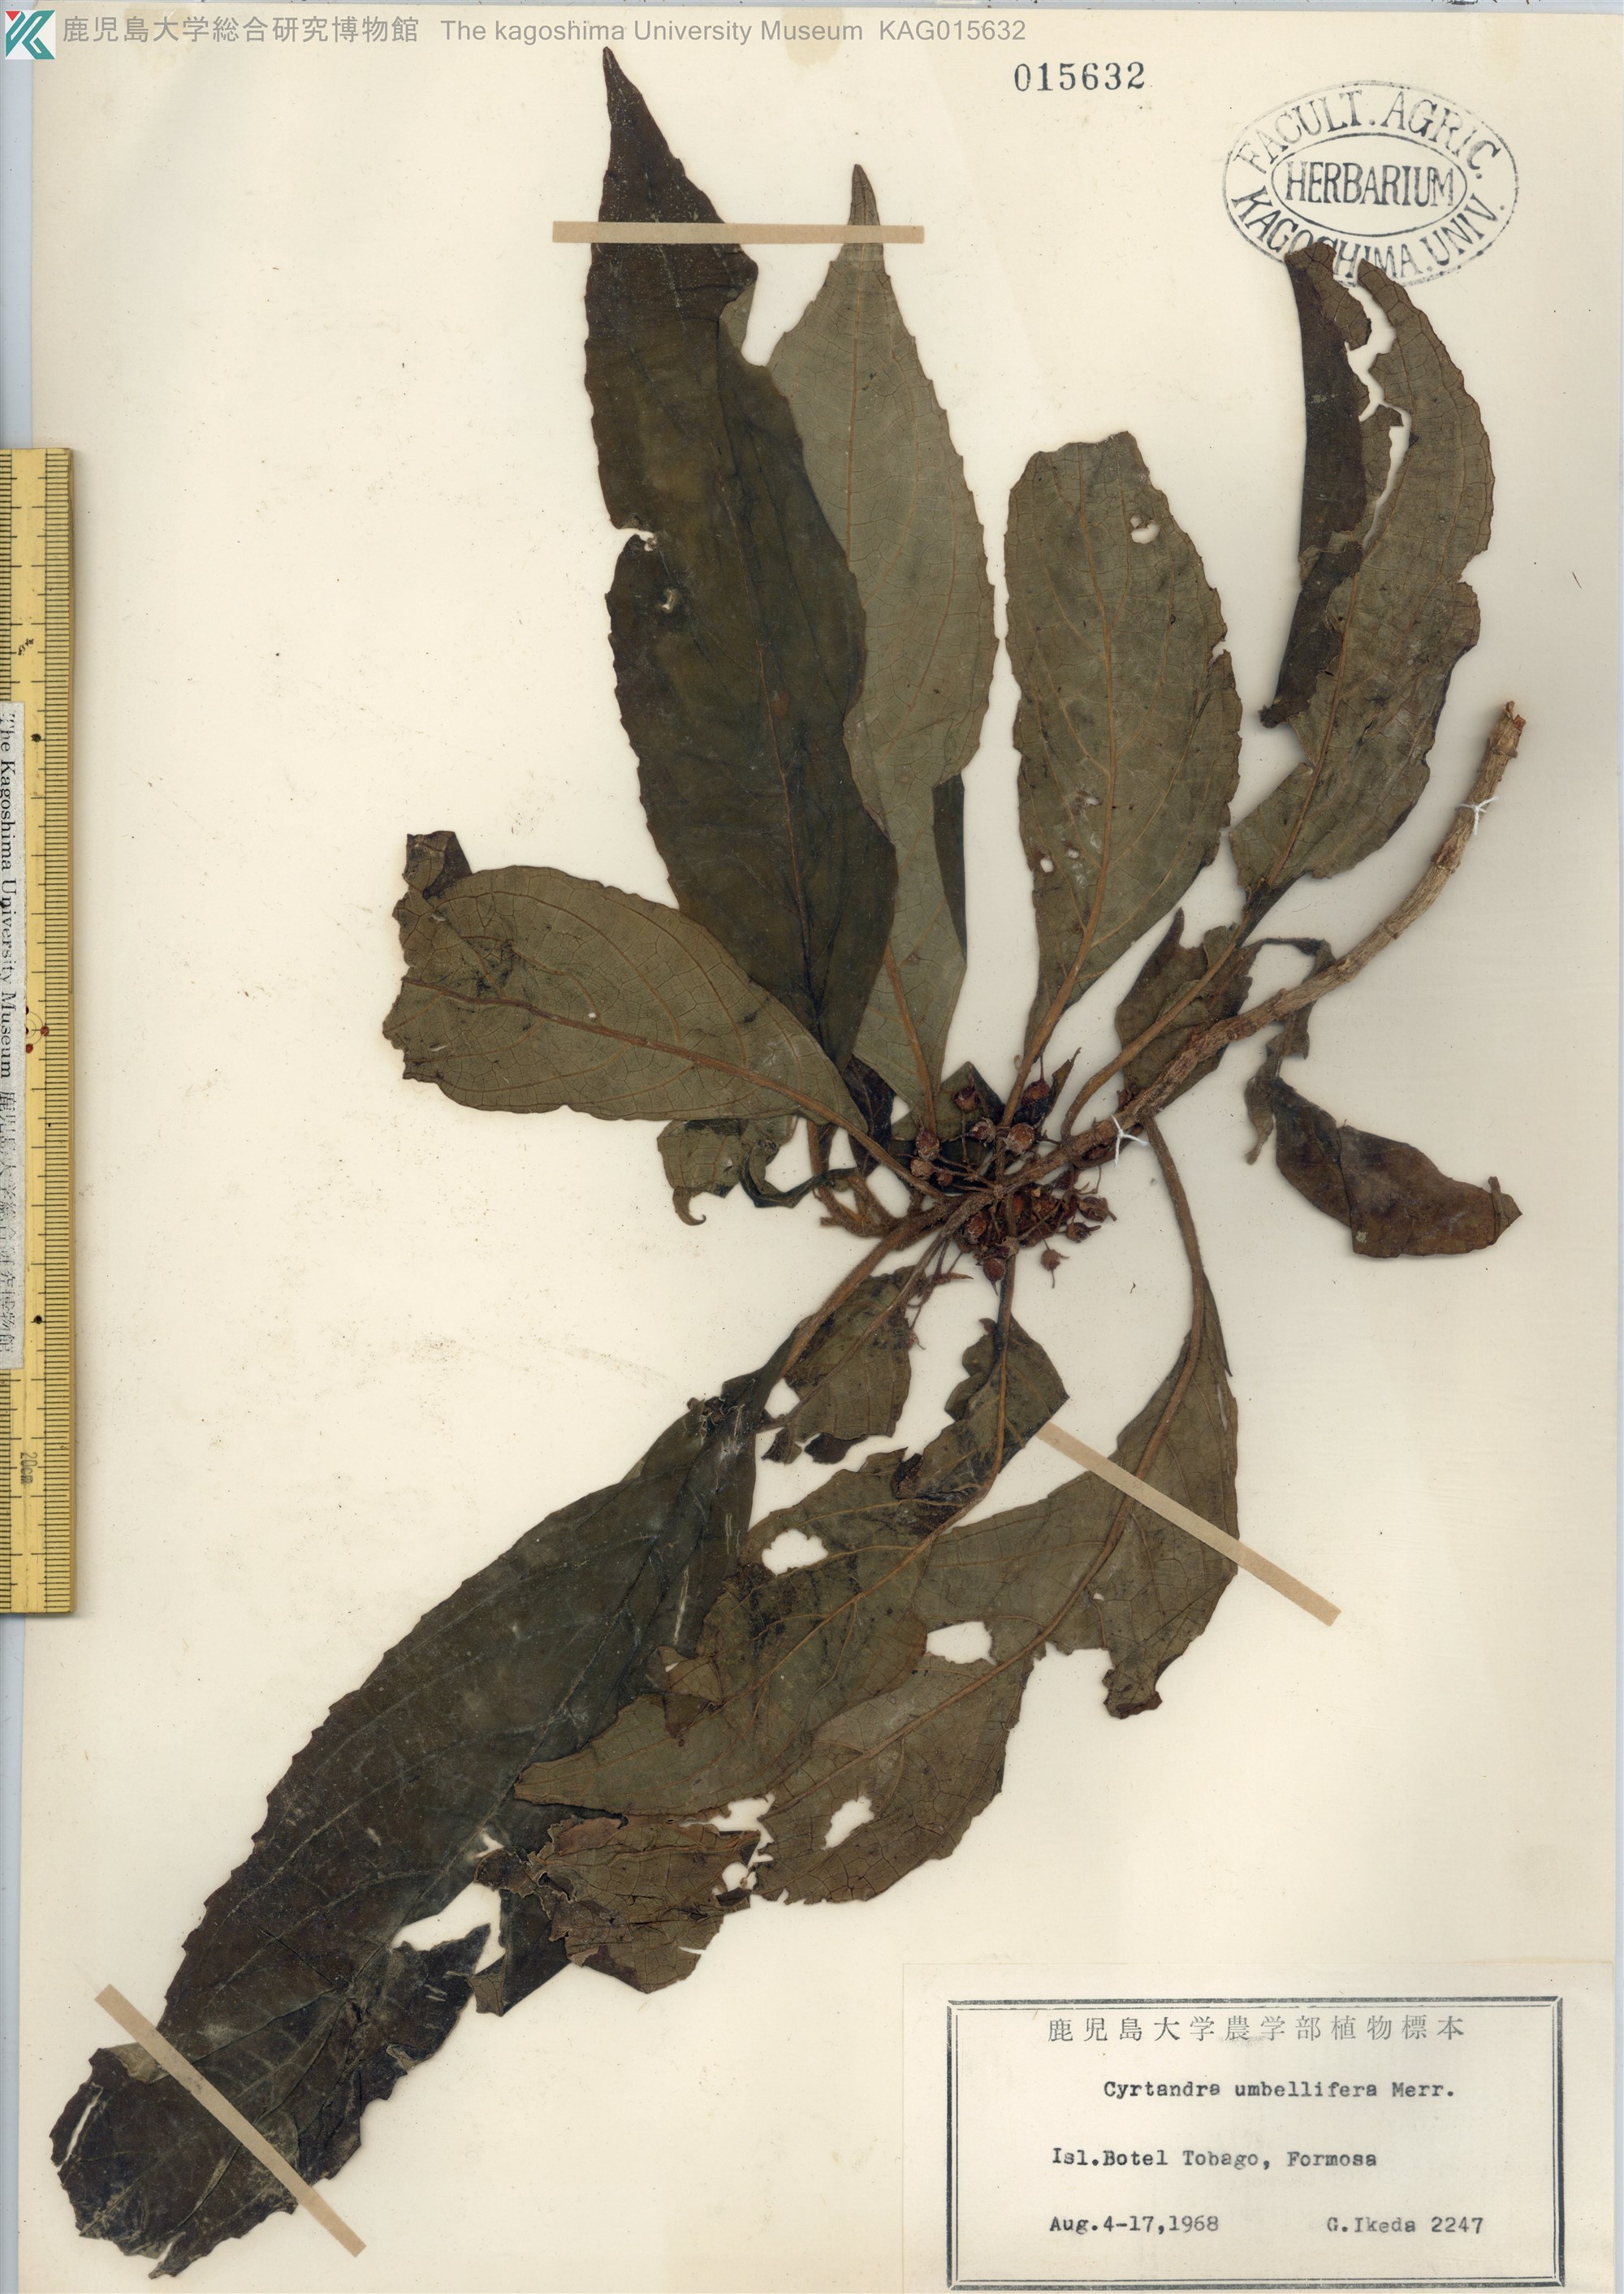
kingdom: Plantae
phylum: Tracheophyta
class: Magnoliopsida
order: Lamiales
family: Gesneriaceae
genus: Cyrtandra
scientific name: Cyrtandra umbellifera
